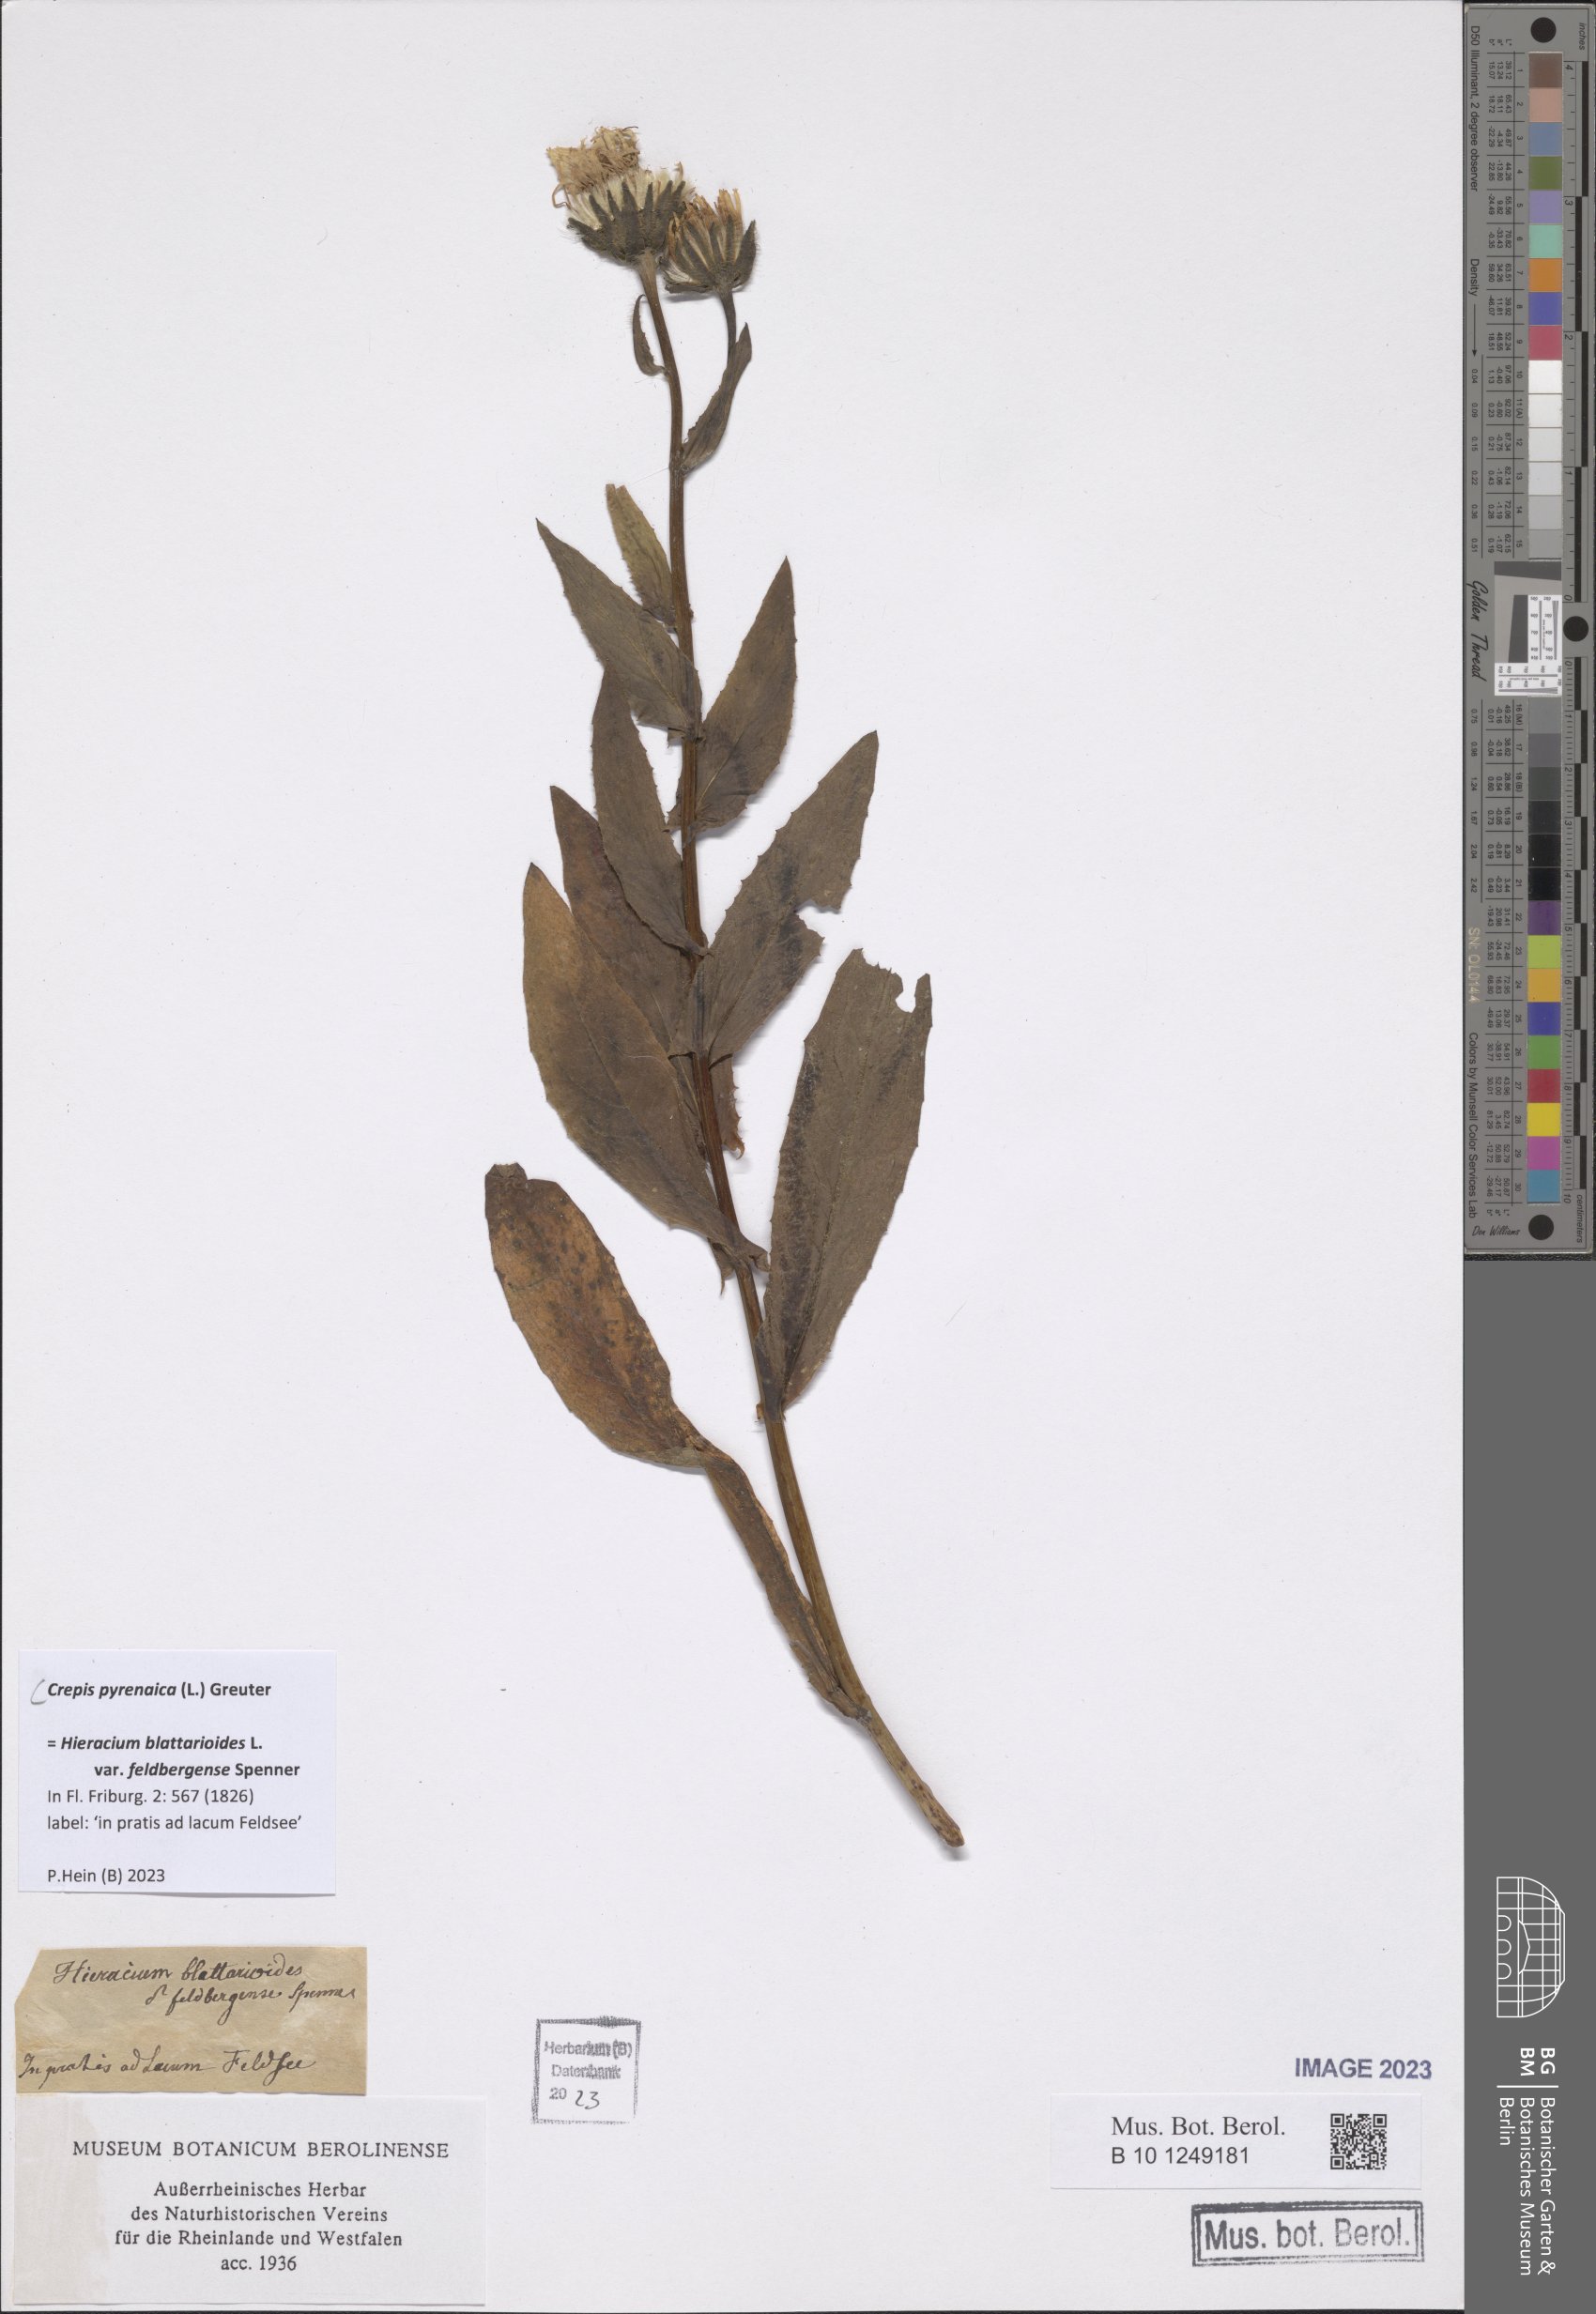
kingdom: Plantae
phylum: Tracheophyta
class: Magnoliopsida
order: Asterales
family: Asteraceae
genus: Crepis
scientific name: Crepis pyrenaica
